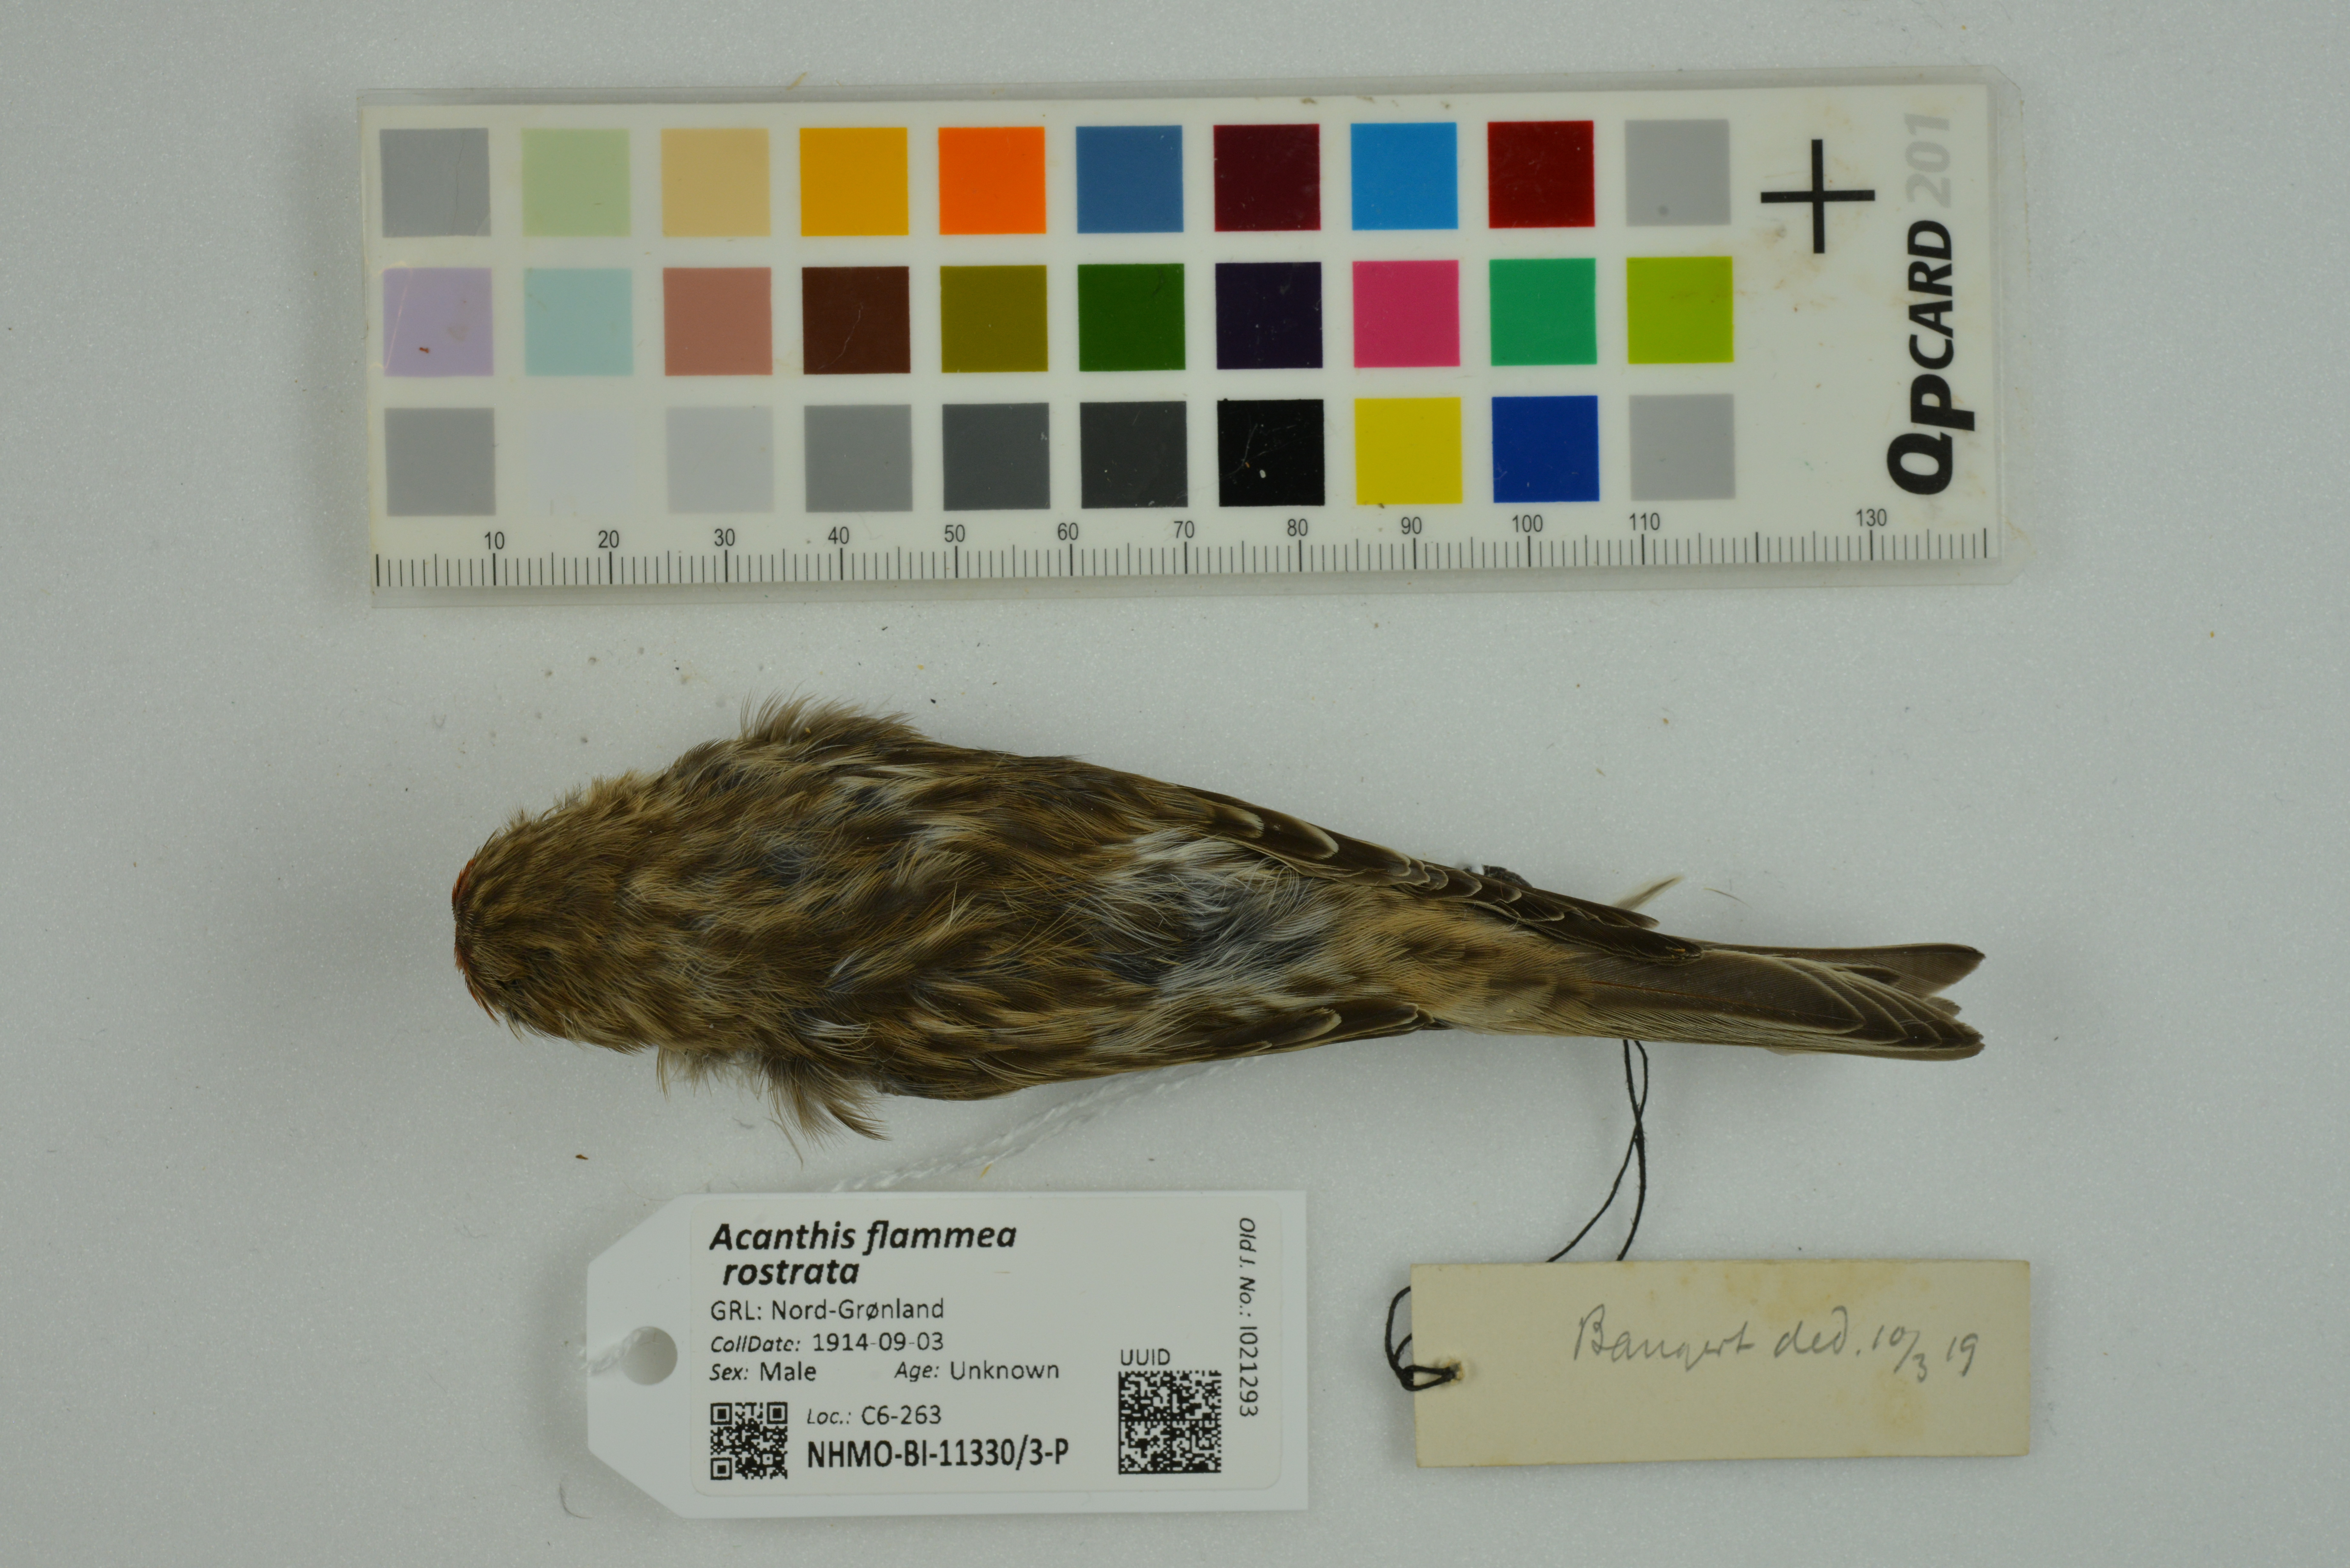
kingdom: Animalia
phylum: Chordata
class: Aves
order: Passeriformes
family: Fringillidae
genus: Acanthis
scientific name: Acanthis flammea
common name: Common redpoll
